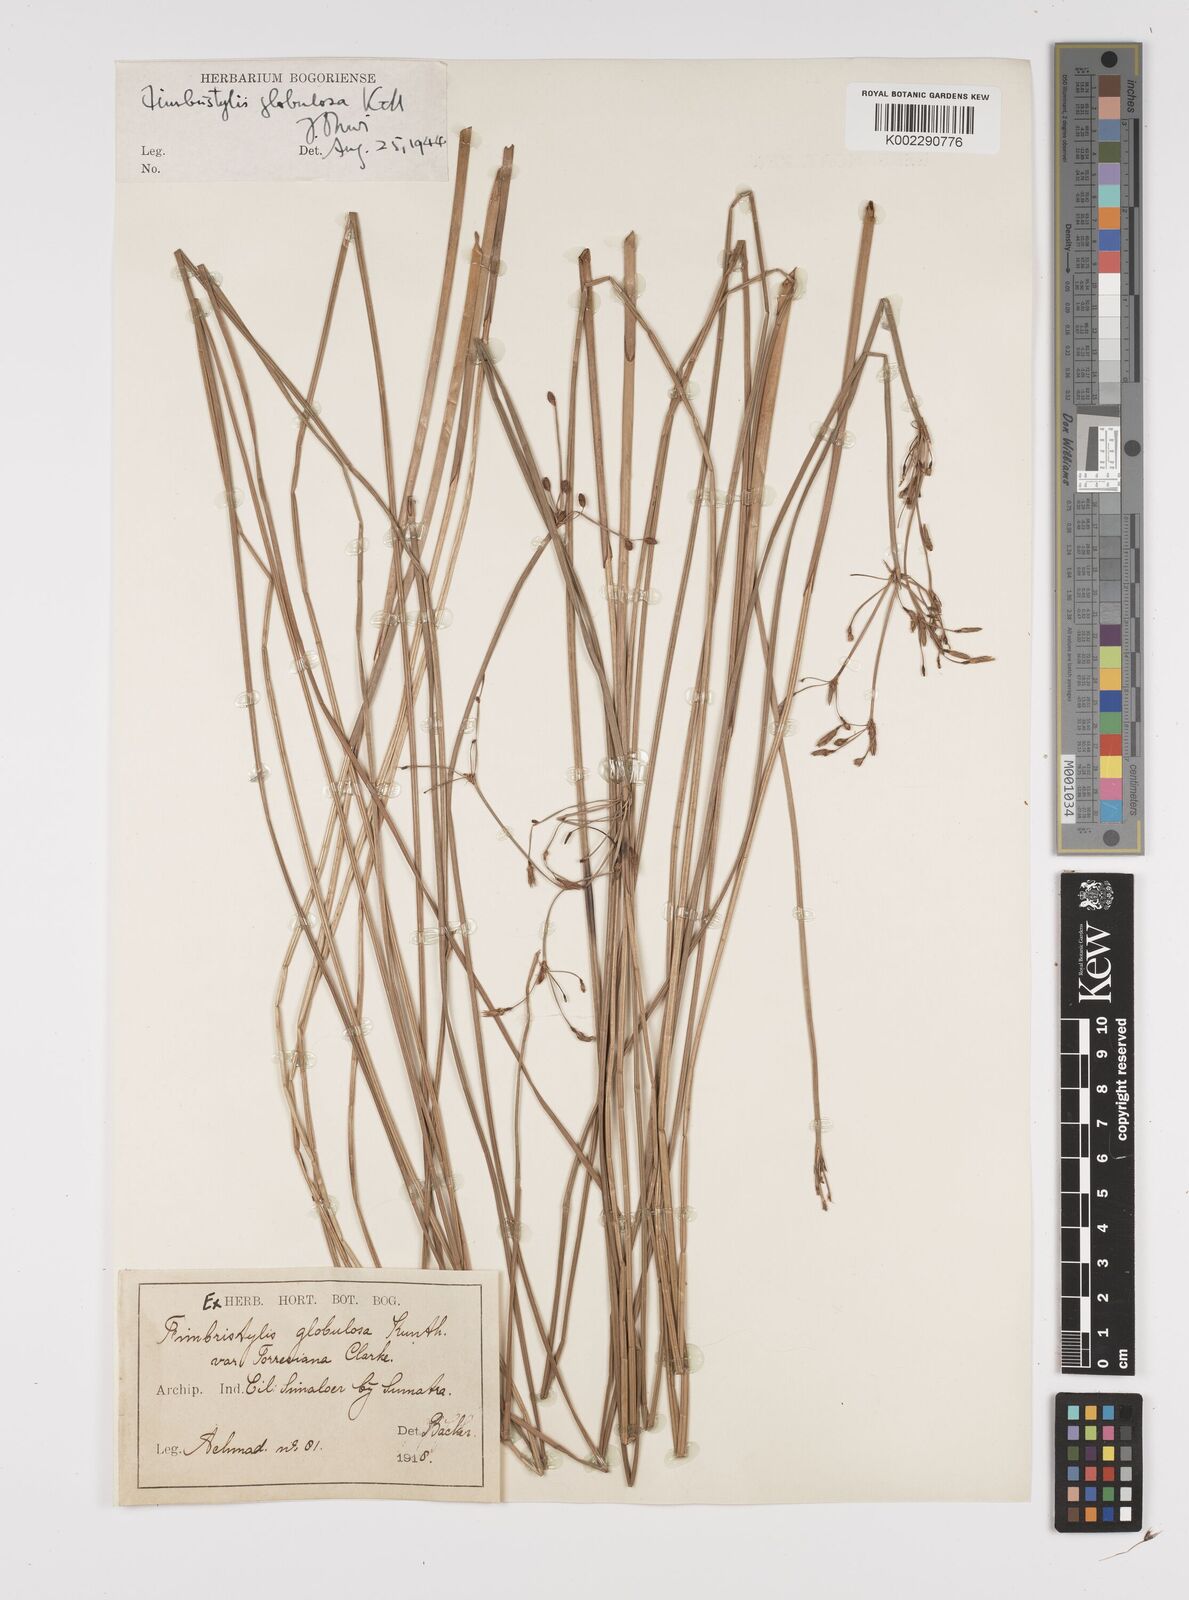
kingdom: Plantae
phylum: Tracheophyta
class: Liliopsida
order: Poales
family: Cyperaceae
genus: Fimbristylis
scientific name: Fimbristylis umbellaris
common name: Globular fimbristylis
